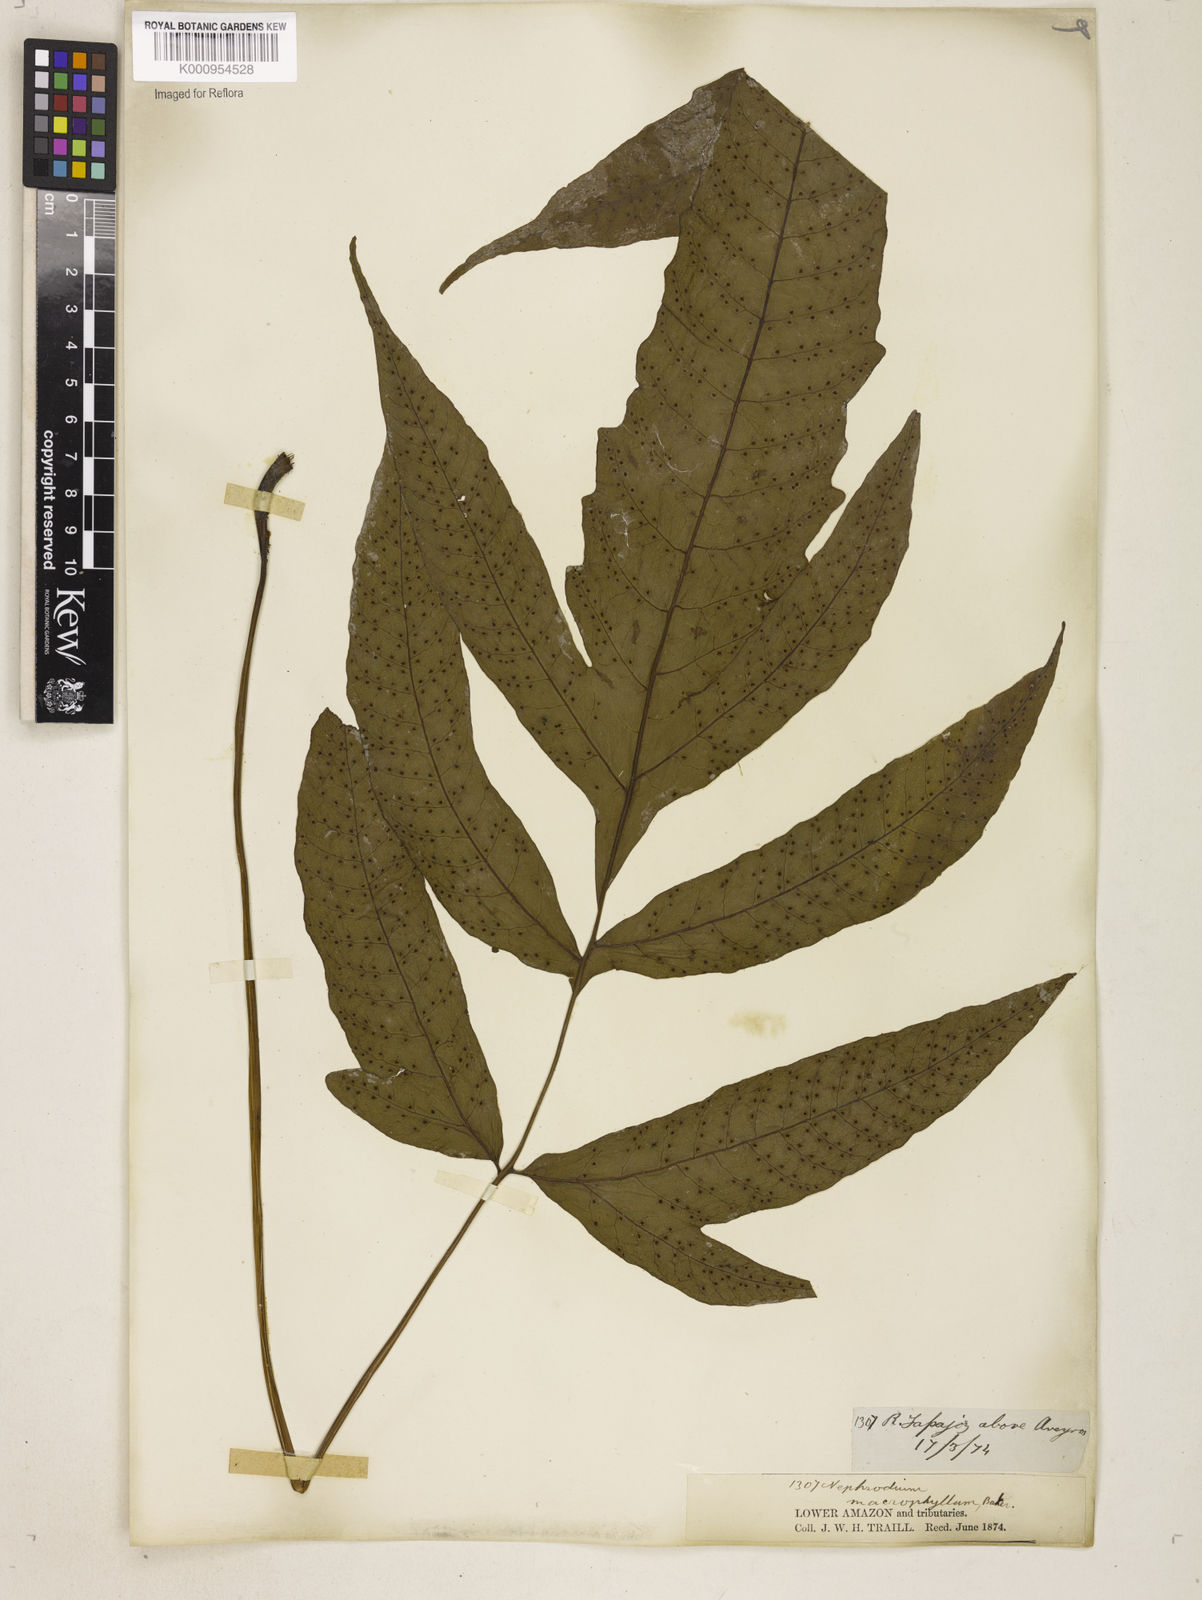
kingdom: Plantae
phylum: Tracheophyta
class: Polypodiopsida
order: Polypodiales
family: Tectariaceae
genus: Tectaria
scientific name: Tectaria incisa
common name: Incised halberd fern
